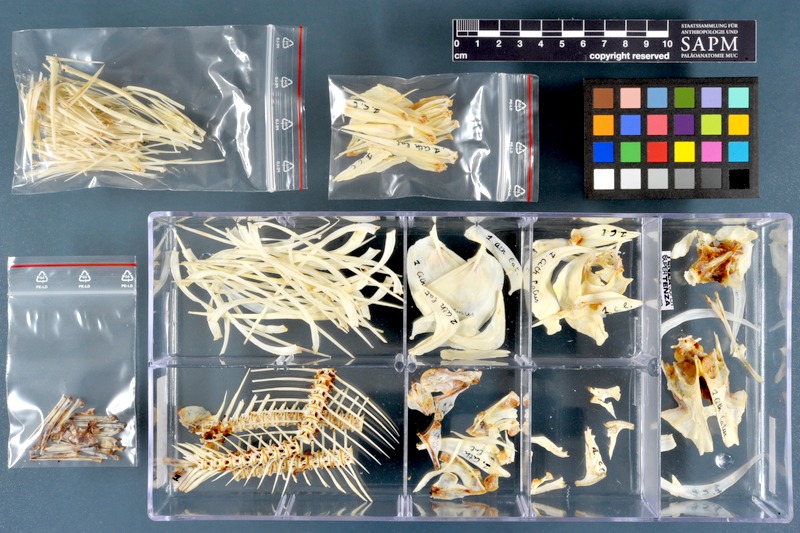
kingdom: Animalia
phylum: Chordata
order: Characiformes
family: Citharinidae
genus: Citharinus
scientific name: Citharinus latus
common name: Moon fish
